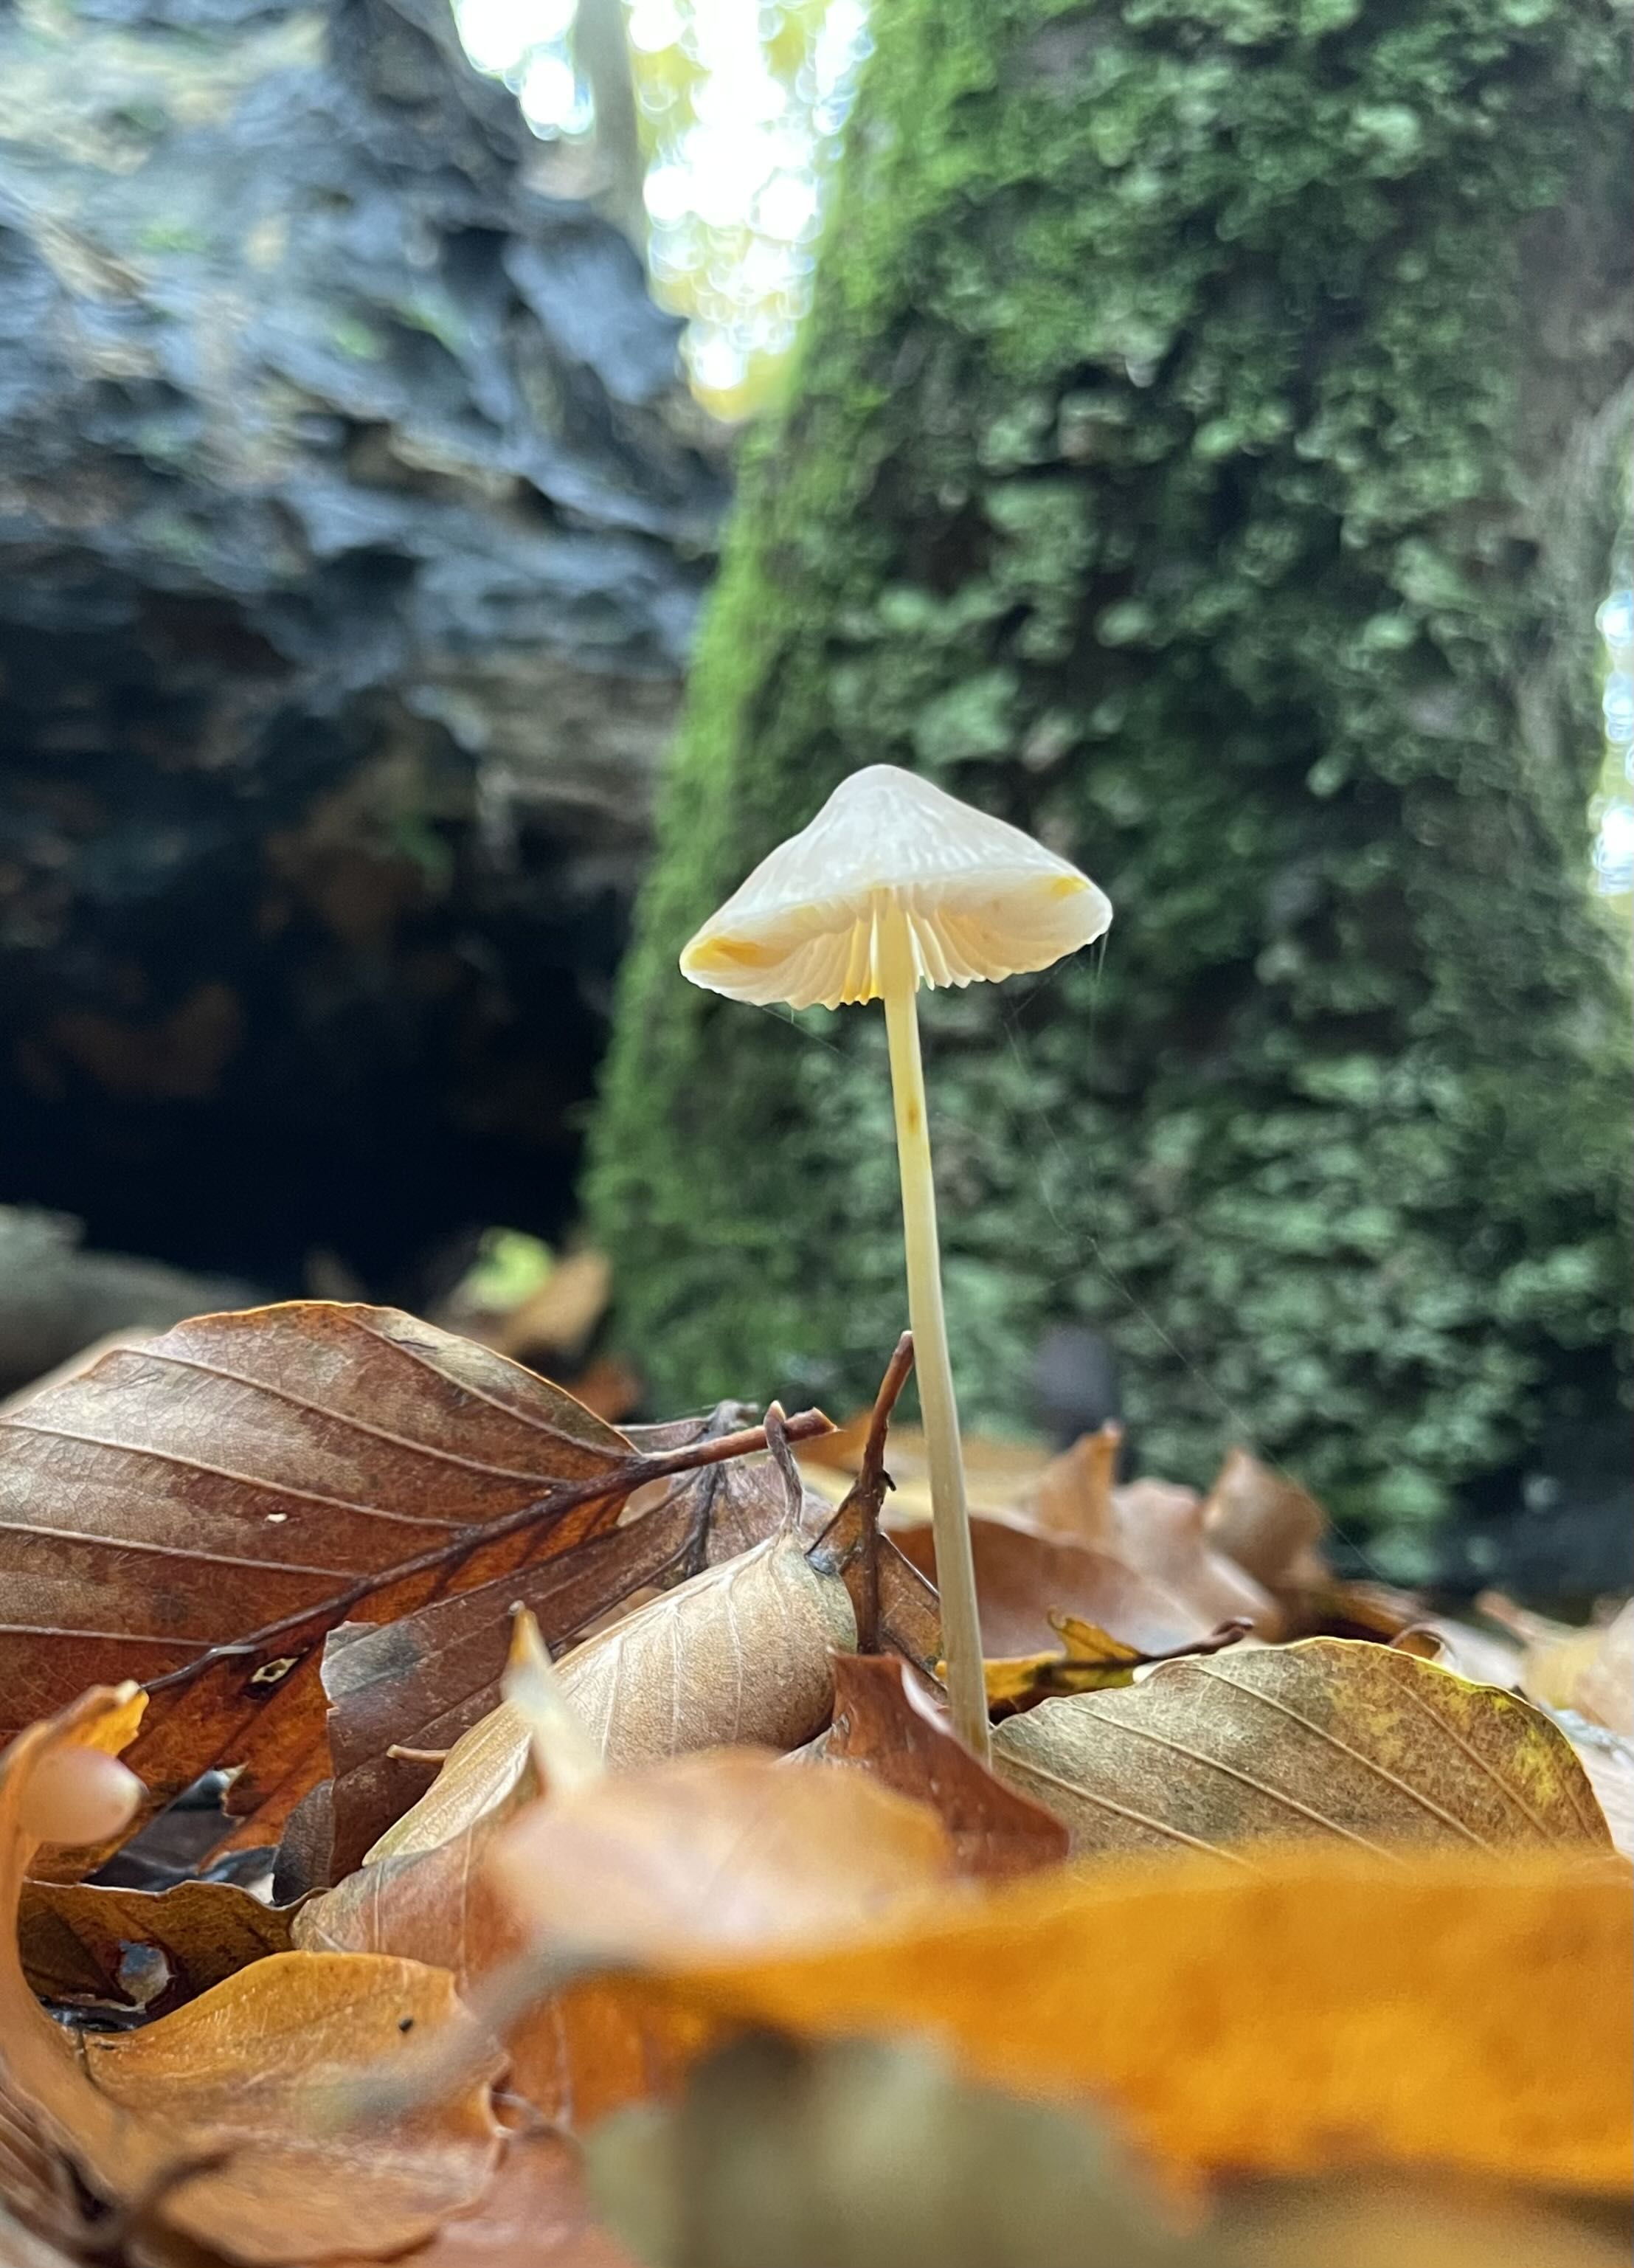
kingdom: Fungi
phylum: Basidiomycota
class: Agaricomycetes
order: Agaricales
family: Mycenaceae
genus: Mycena
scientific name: Mycena crocata
